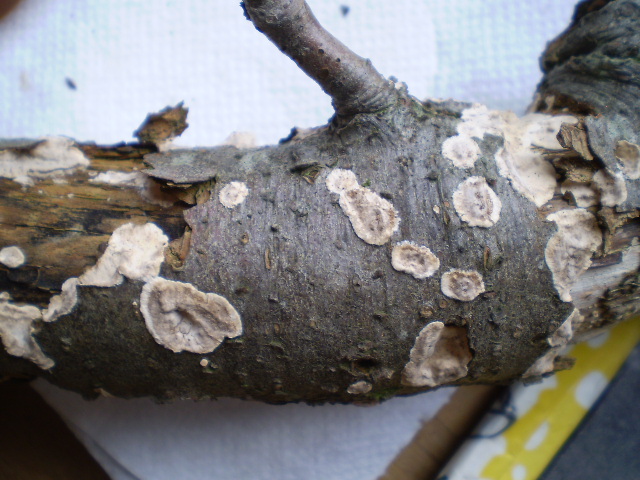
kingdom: Fungi
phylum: Basidiomycota
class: Agaricomycetes
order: Russulales
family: Stereaceae
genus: Stereum
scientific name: Stereum rugosum
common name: rynket lædersvamp
